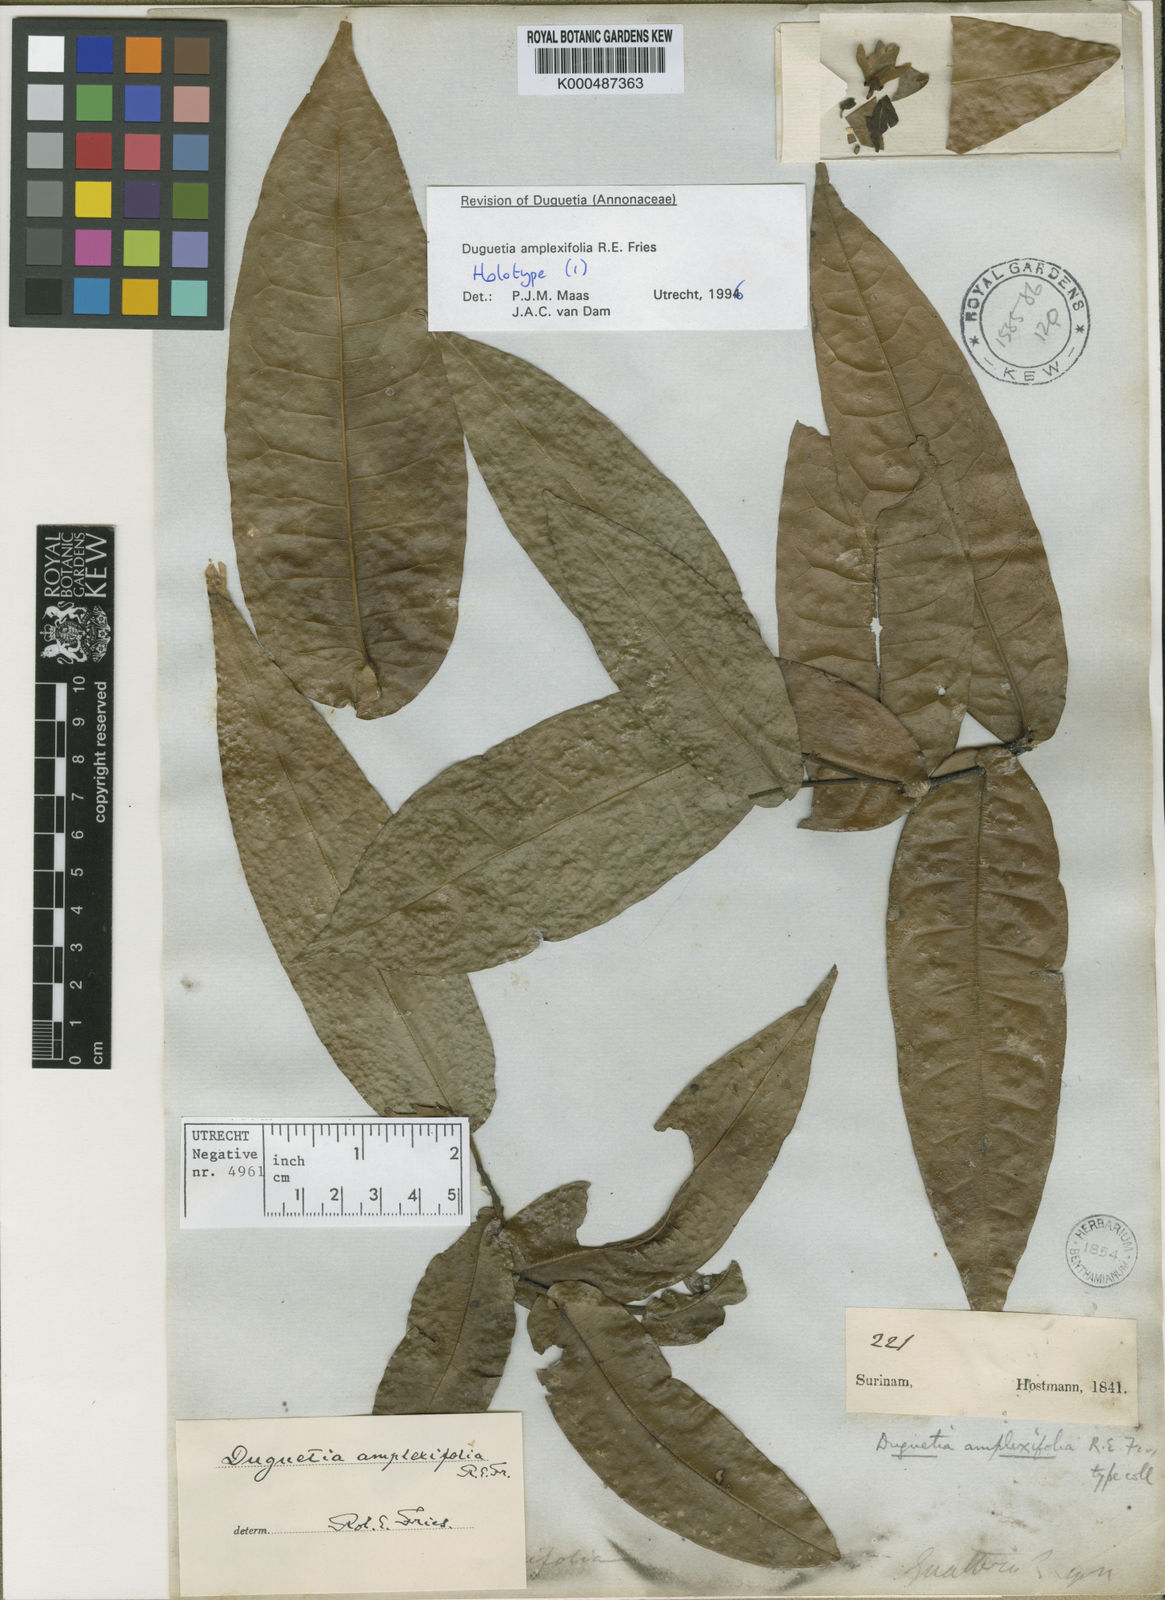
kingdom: Plantae
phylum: Tracheophyta
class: Magnoliopsida
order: Magnoliales
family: Annonaceae
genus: Duguetia
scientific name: Duguetia amplexifolia
